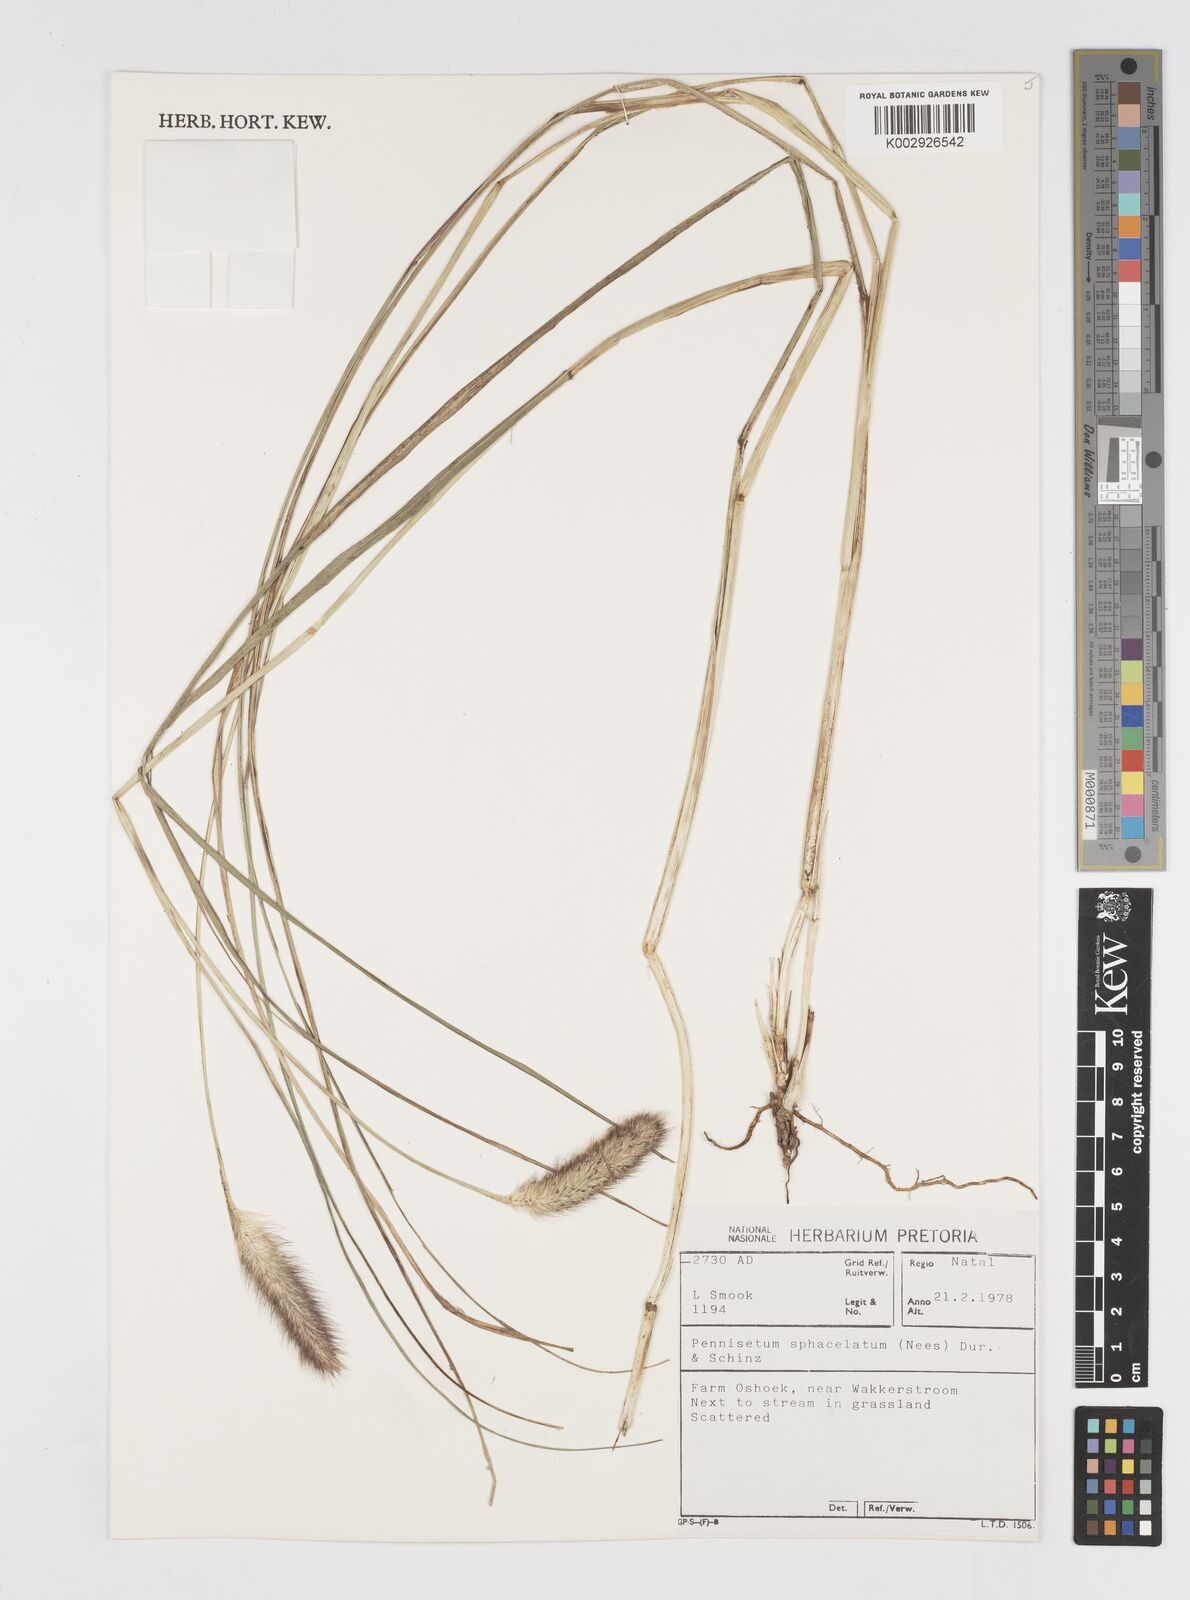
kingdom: Plantae
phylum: Tracheophyta
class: Liliopsida
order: Poales
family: Poaceae
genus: Cenchrus
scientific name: Cenchrus sphacelatus
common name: Bulgras
